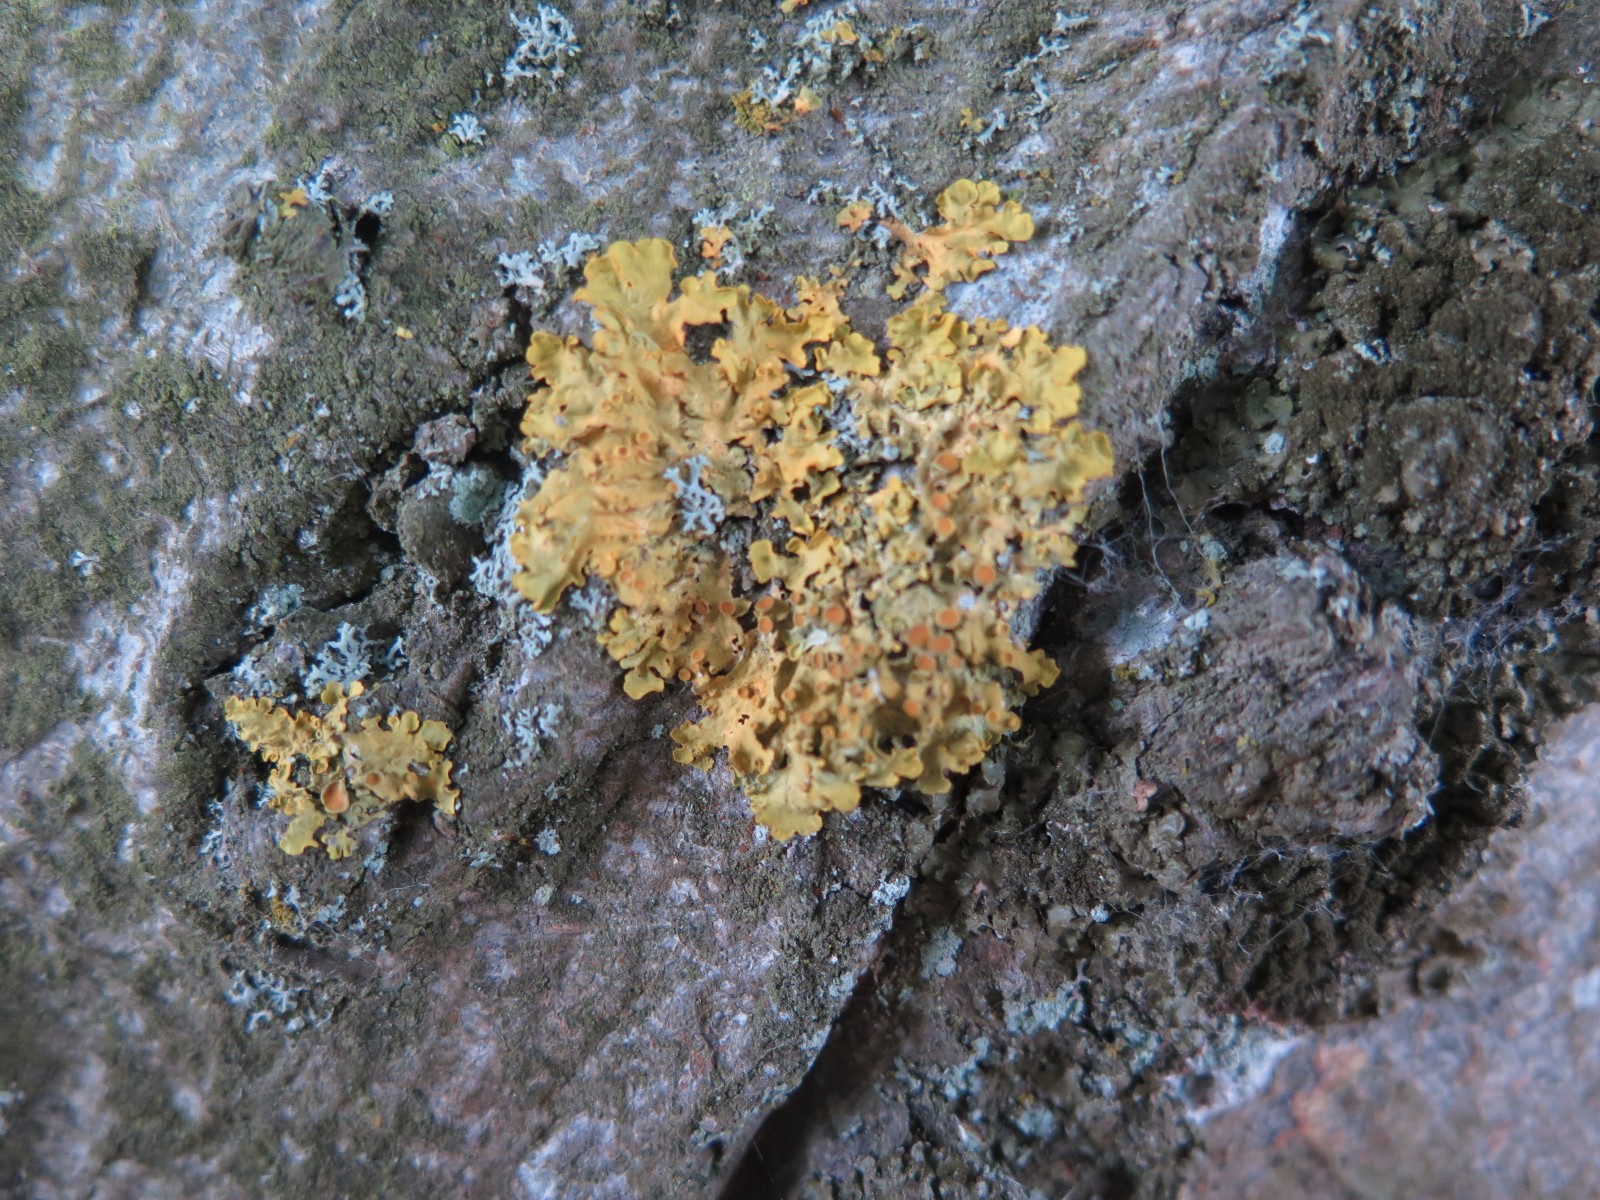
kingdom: Fungi
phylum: Ascomycota
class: Lecanoromycetes
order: Teloschistales
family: Teloschistaceae
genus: Xanthoria
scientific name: Xanthoria parietina
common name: almindelig væggelav
